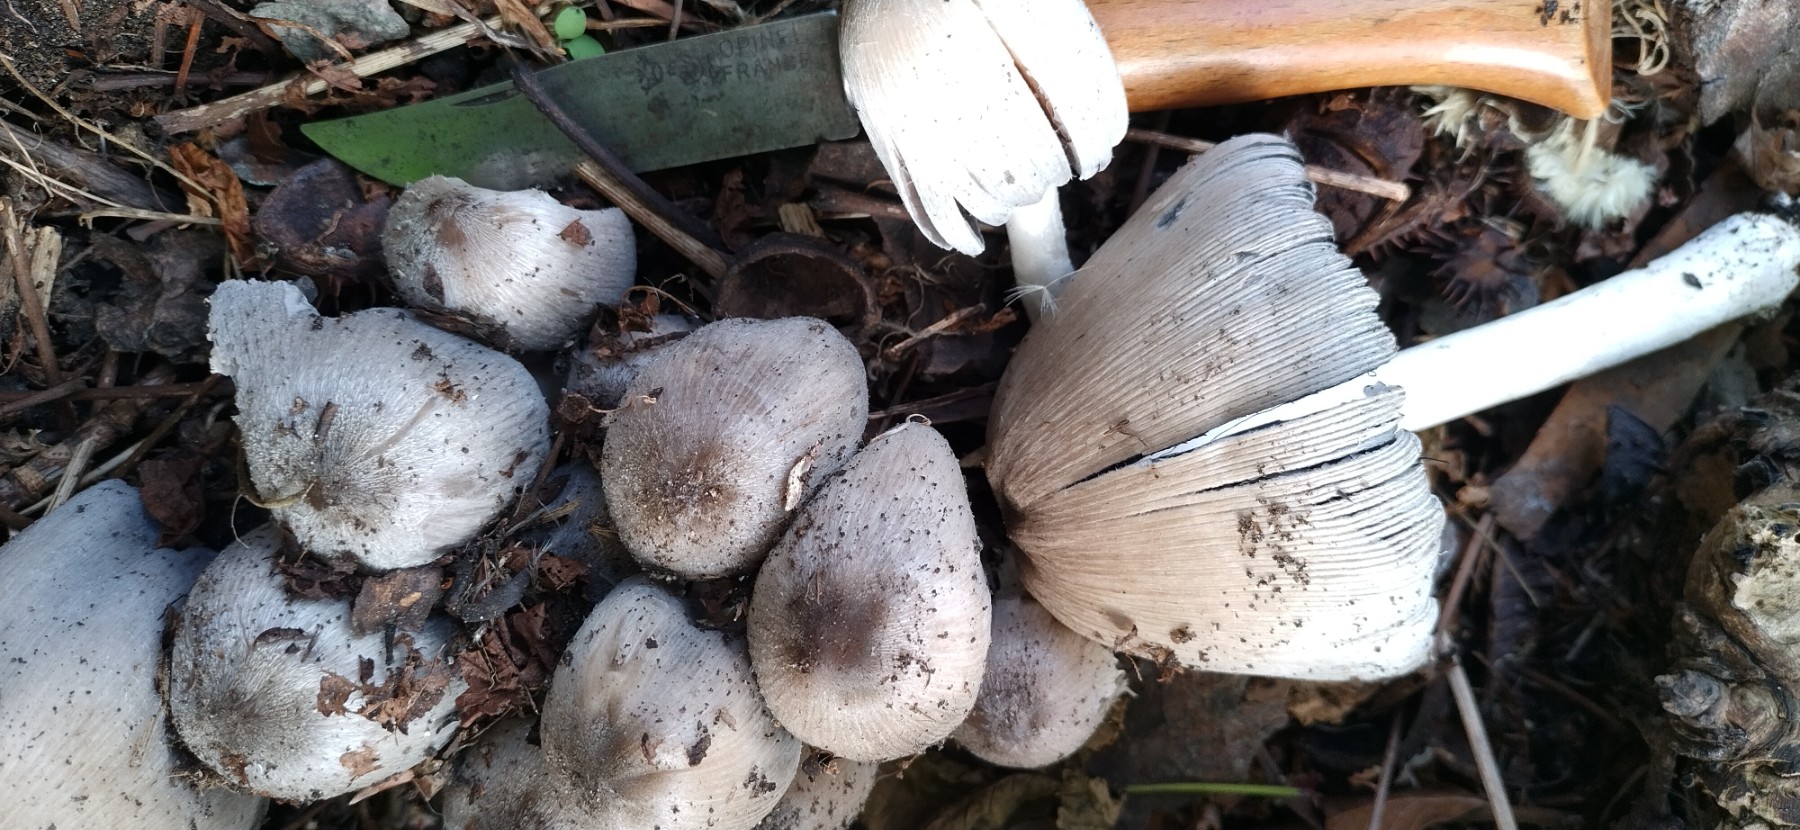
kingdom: Fungi
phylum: Basidiomycota
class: Agaricomycetes
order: Agaricales
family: Psathyrellaceae
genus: Coprinopsis
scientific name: Coprinopsis atramentaria
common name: almindelig blækhat
